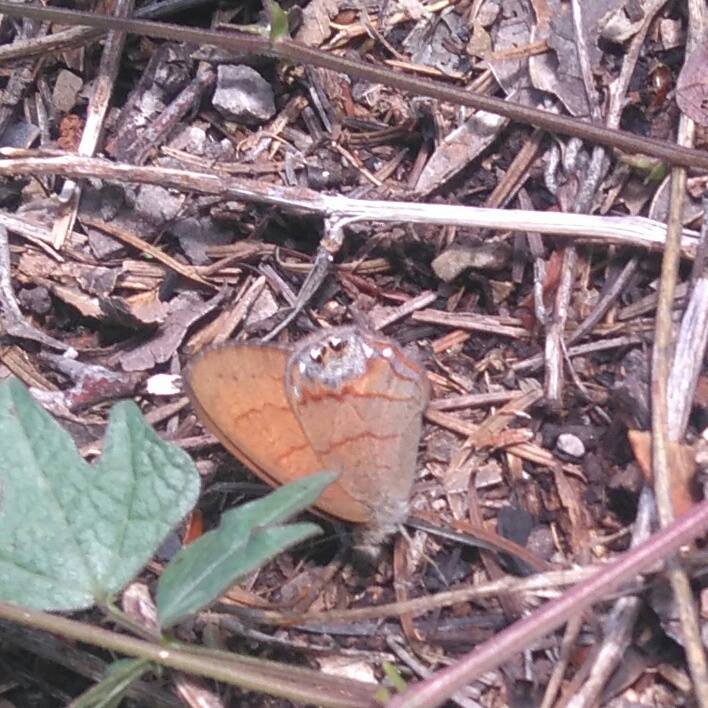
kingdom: Animalia
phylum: Arthropoda
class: Insecta
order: Lepidoptera
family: Nymphalidae
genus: Euptychia
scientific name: Euptychia pyracmon
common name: Nabokov's Satyr
